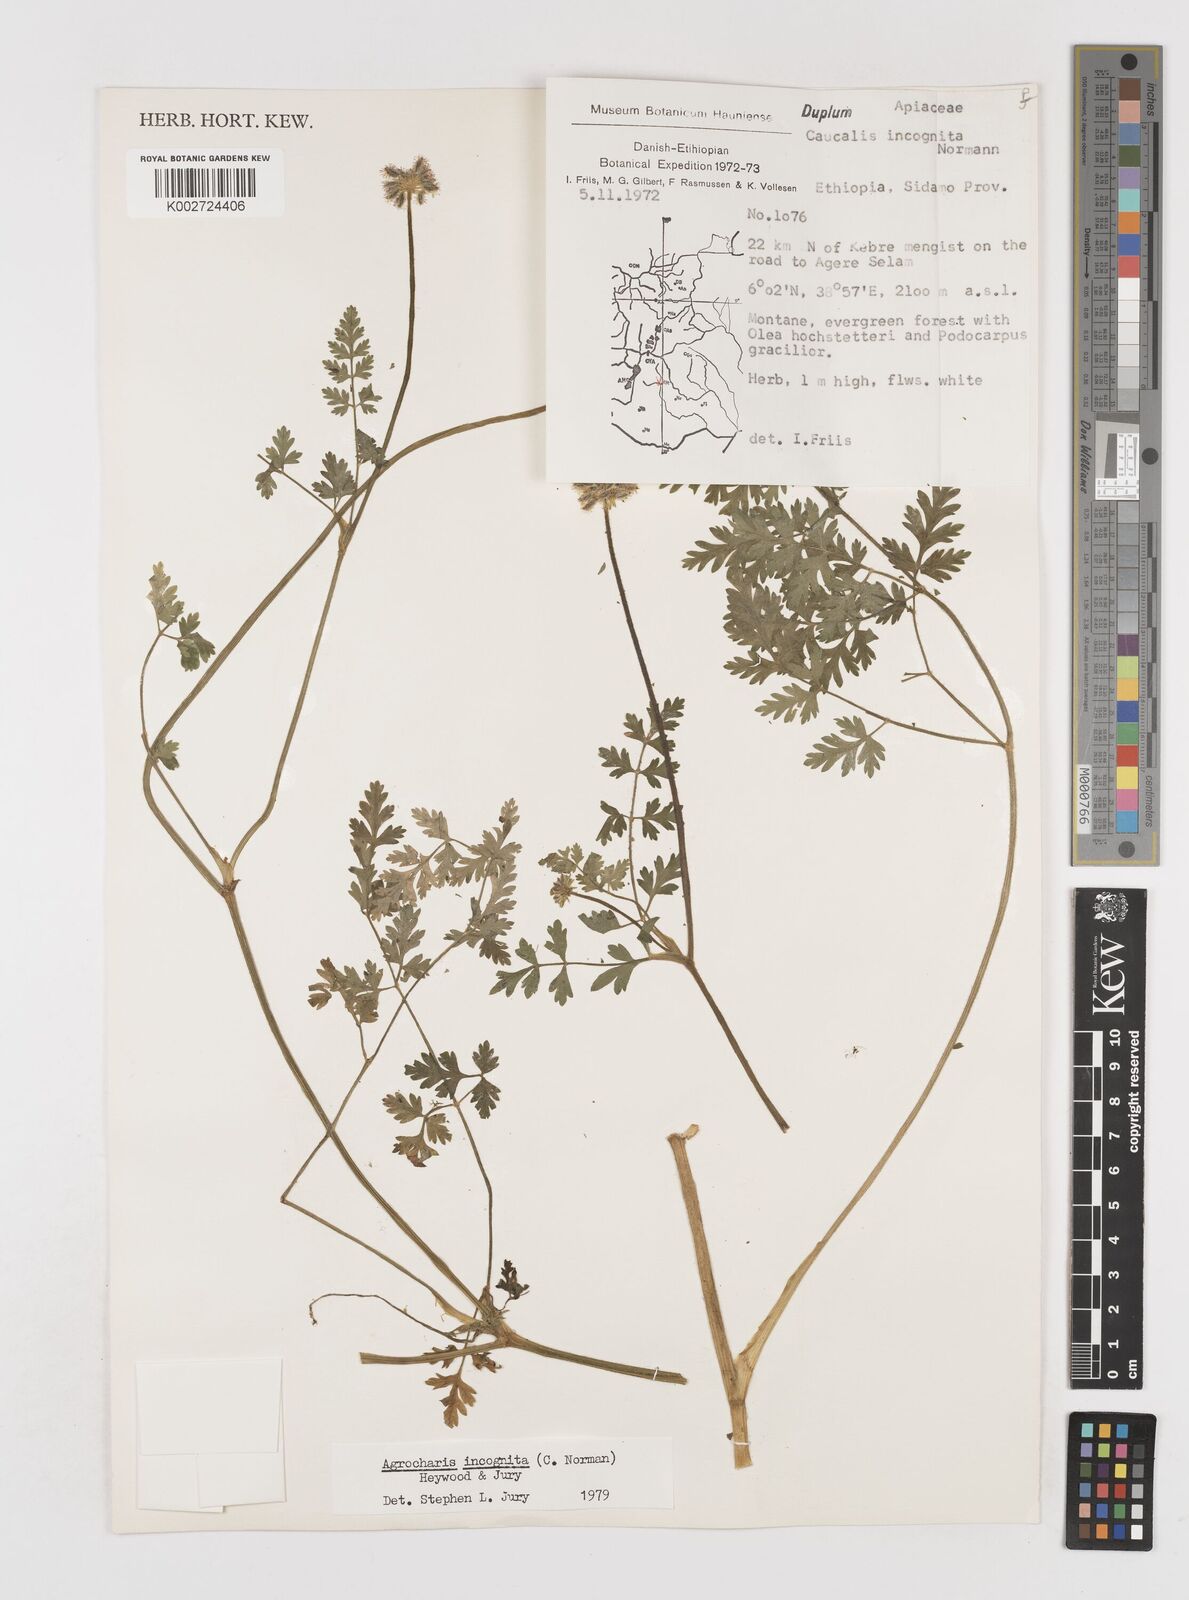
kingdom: Plantae
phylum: Tracheophyta
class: Magnoliopsida
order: Apiales
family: Apiaceae
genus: Daucus
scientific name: Daucus incognitus
